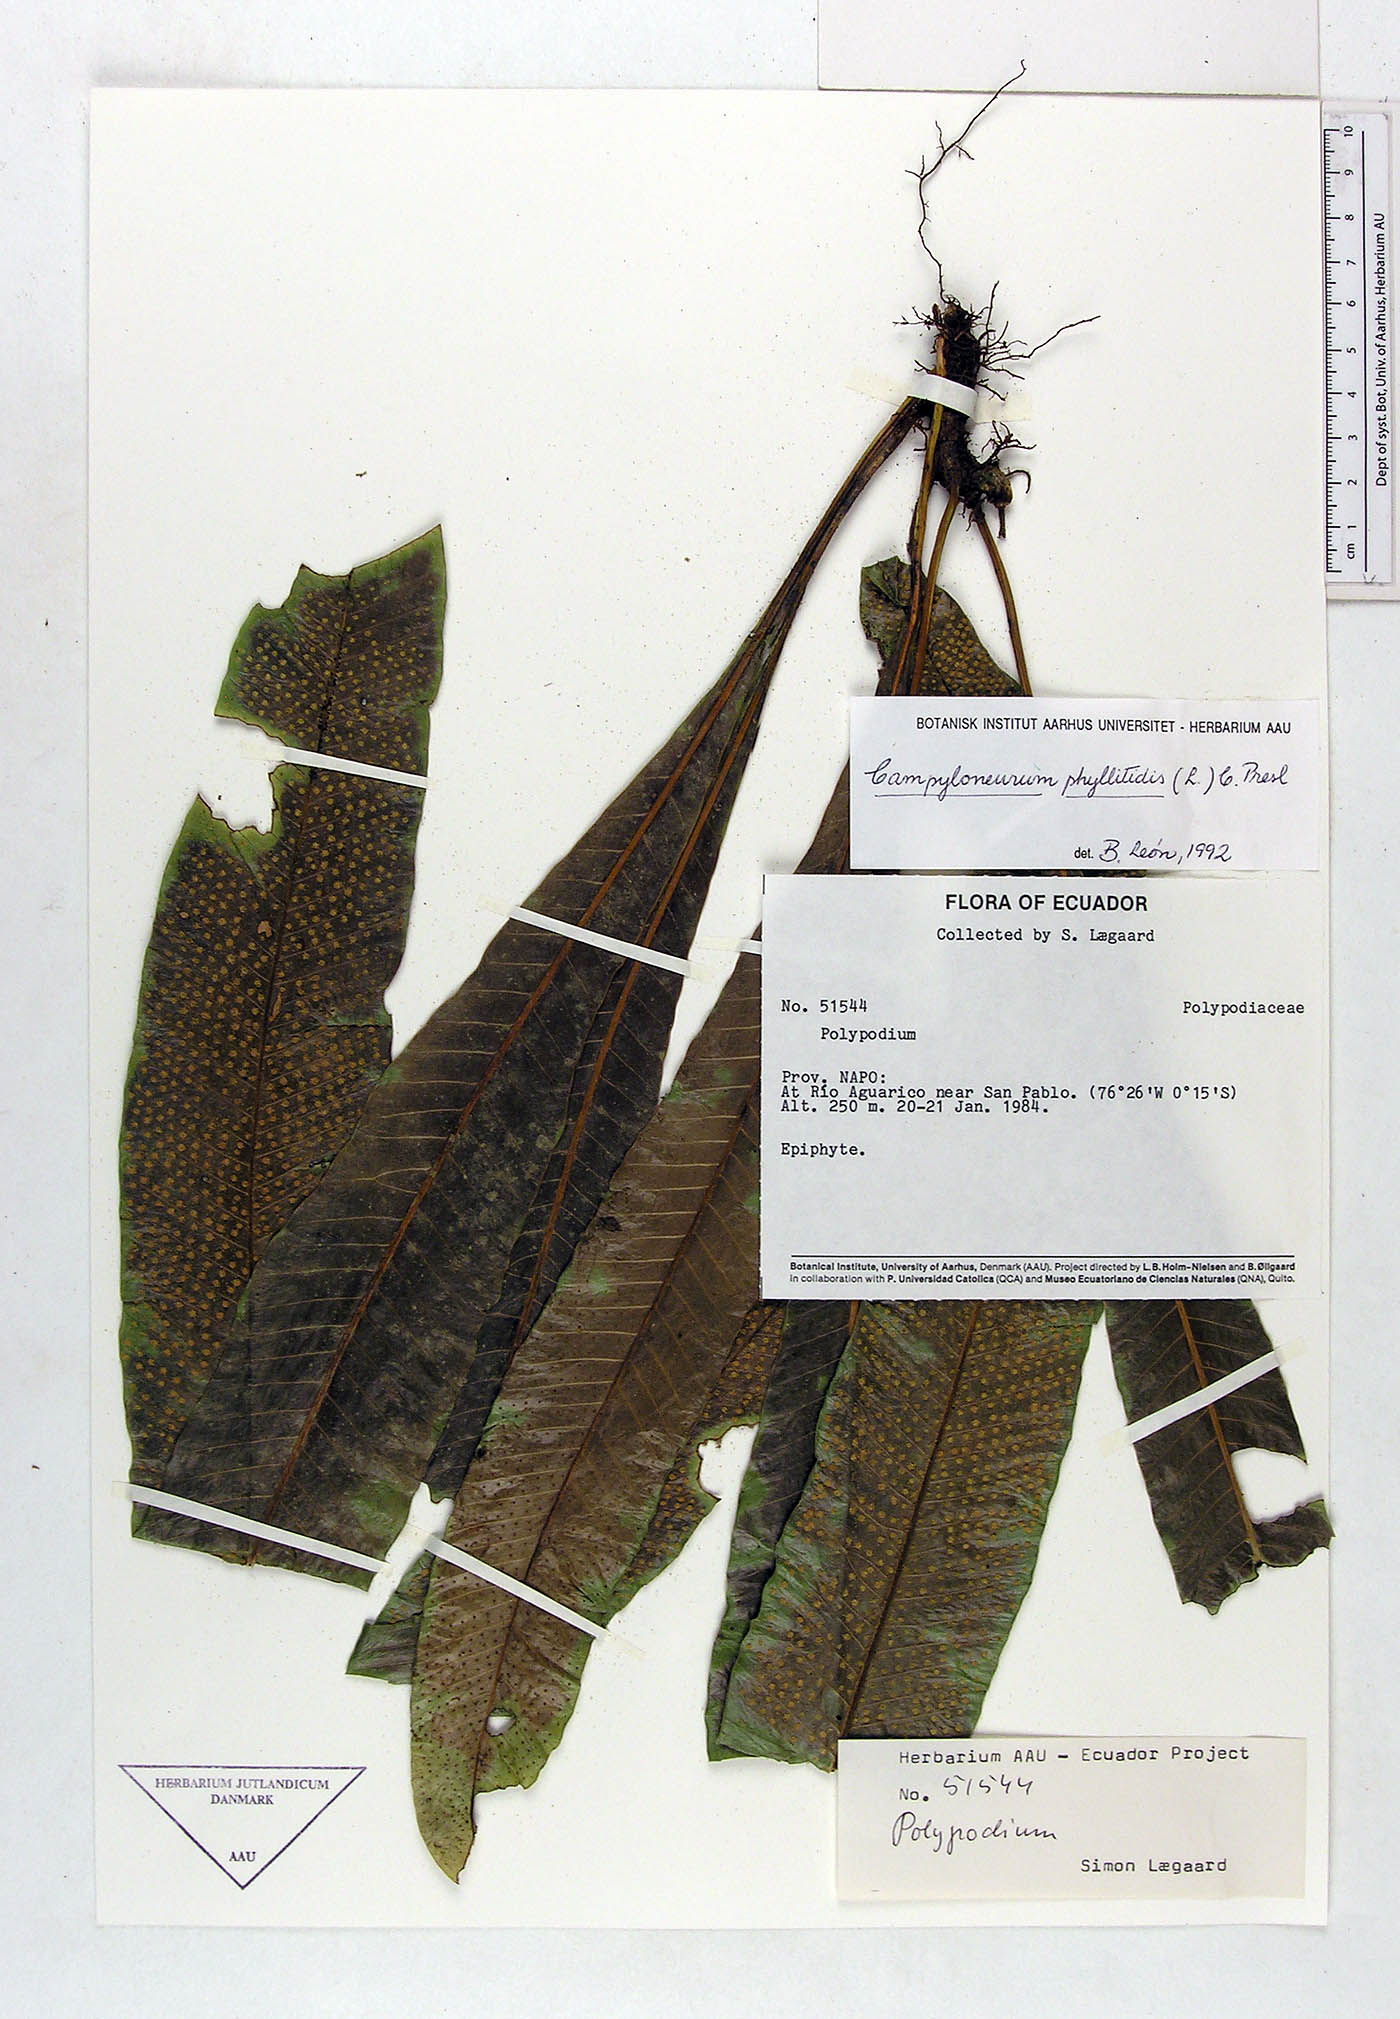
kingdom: Plantae
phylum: Tracheophyta
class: Polypodiopsida
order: Polypodiales
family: Polypodiaceae
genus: Campyloneurum
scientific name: Campyloneurum phyllitidis
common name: Cow-tongue fern
